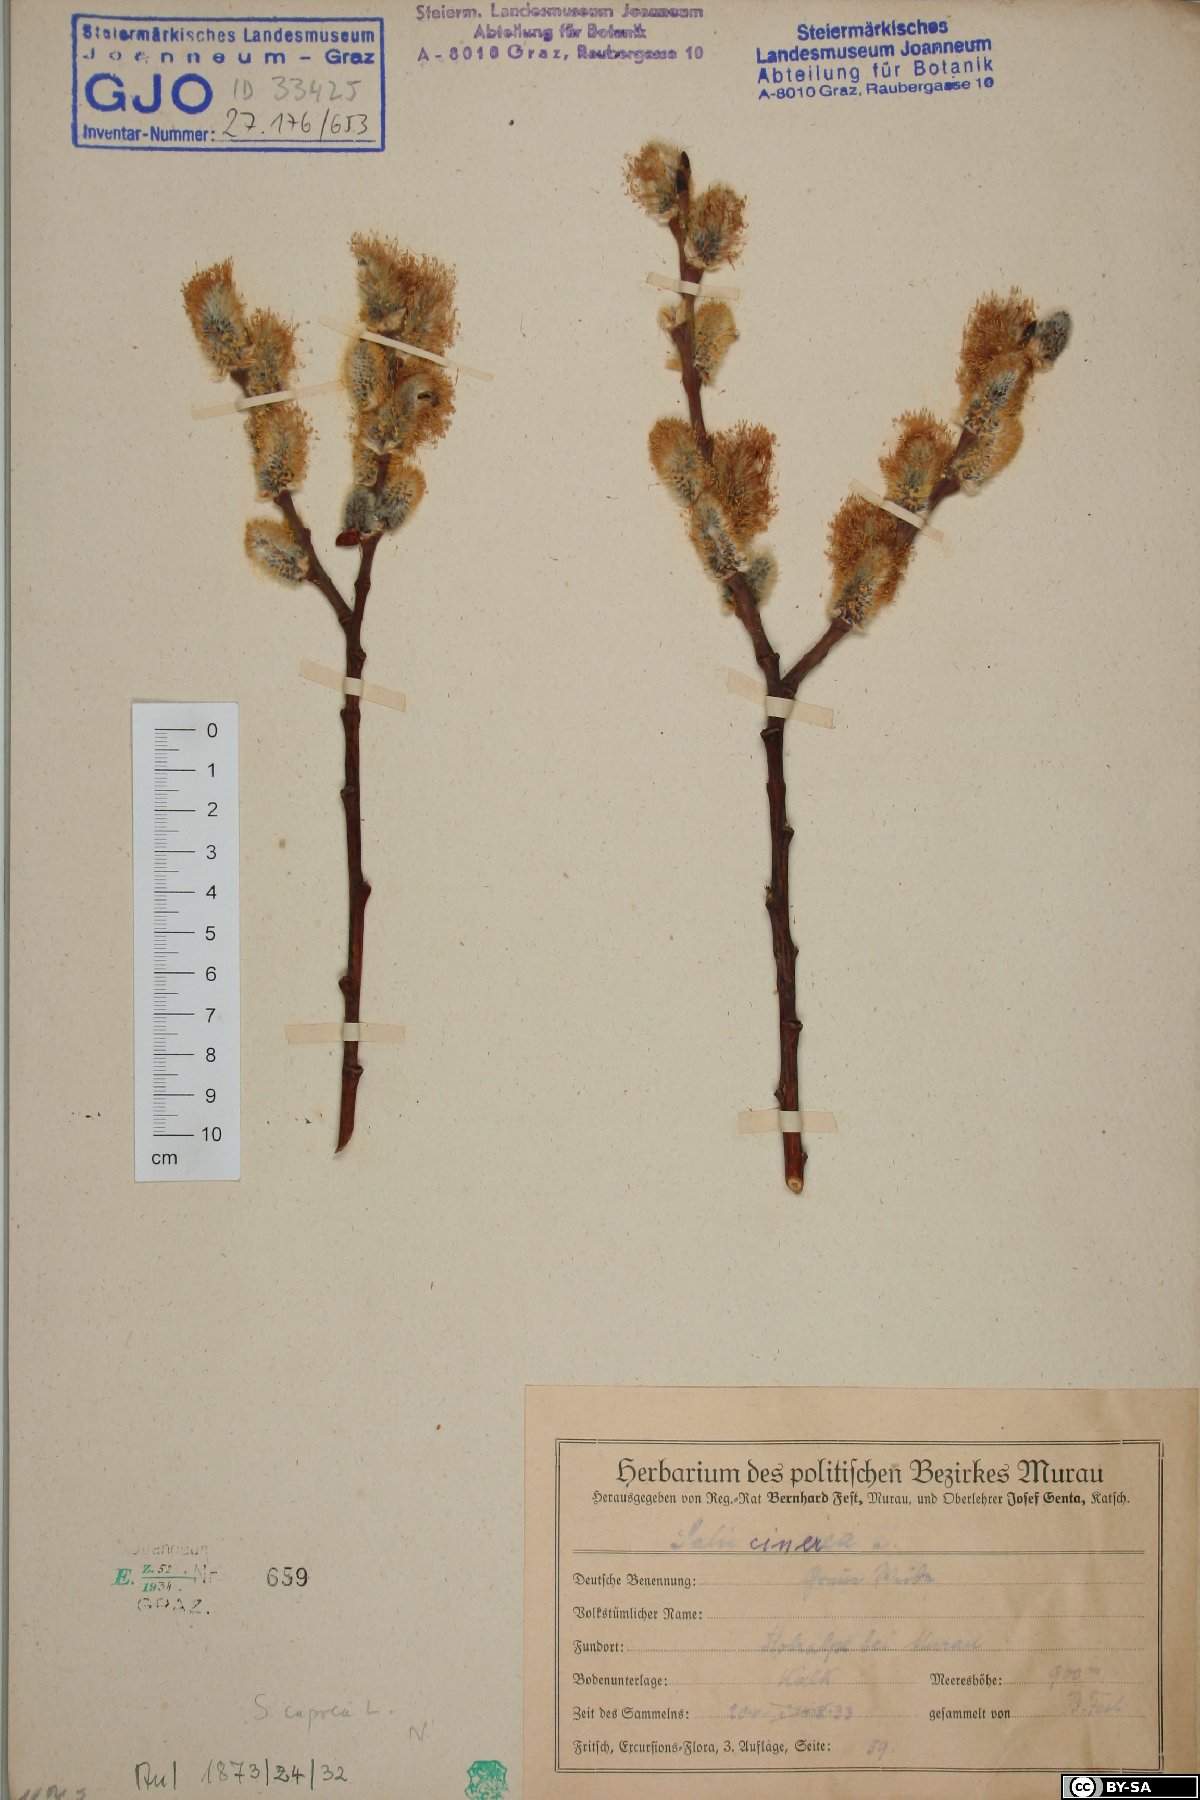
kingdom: Plantae
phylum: Tracheophyta
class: Magnoliopsida
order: Malpighiales
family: Salicaceae
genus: Salix
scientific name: Salix caprea
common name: Goat willow
